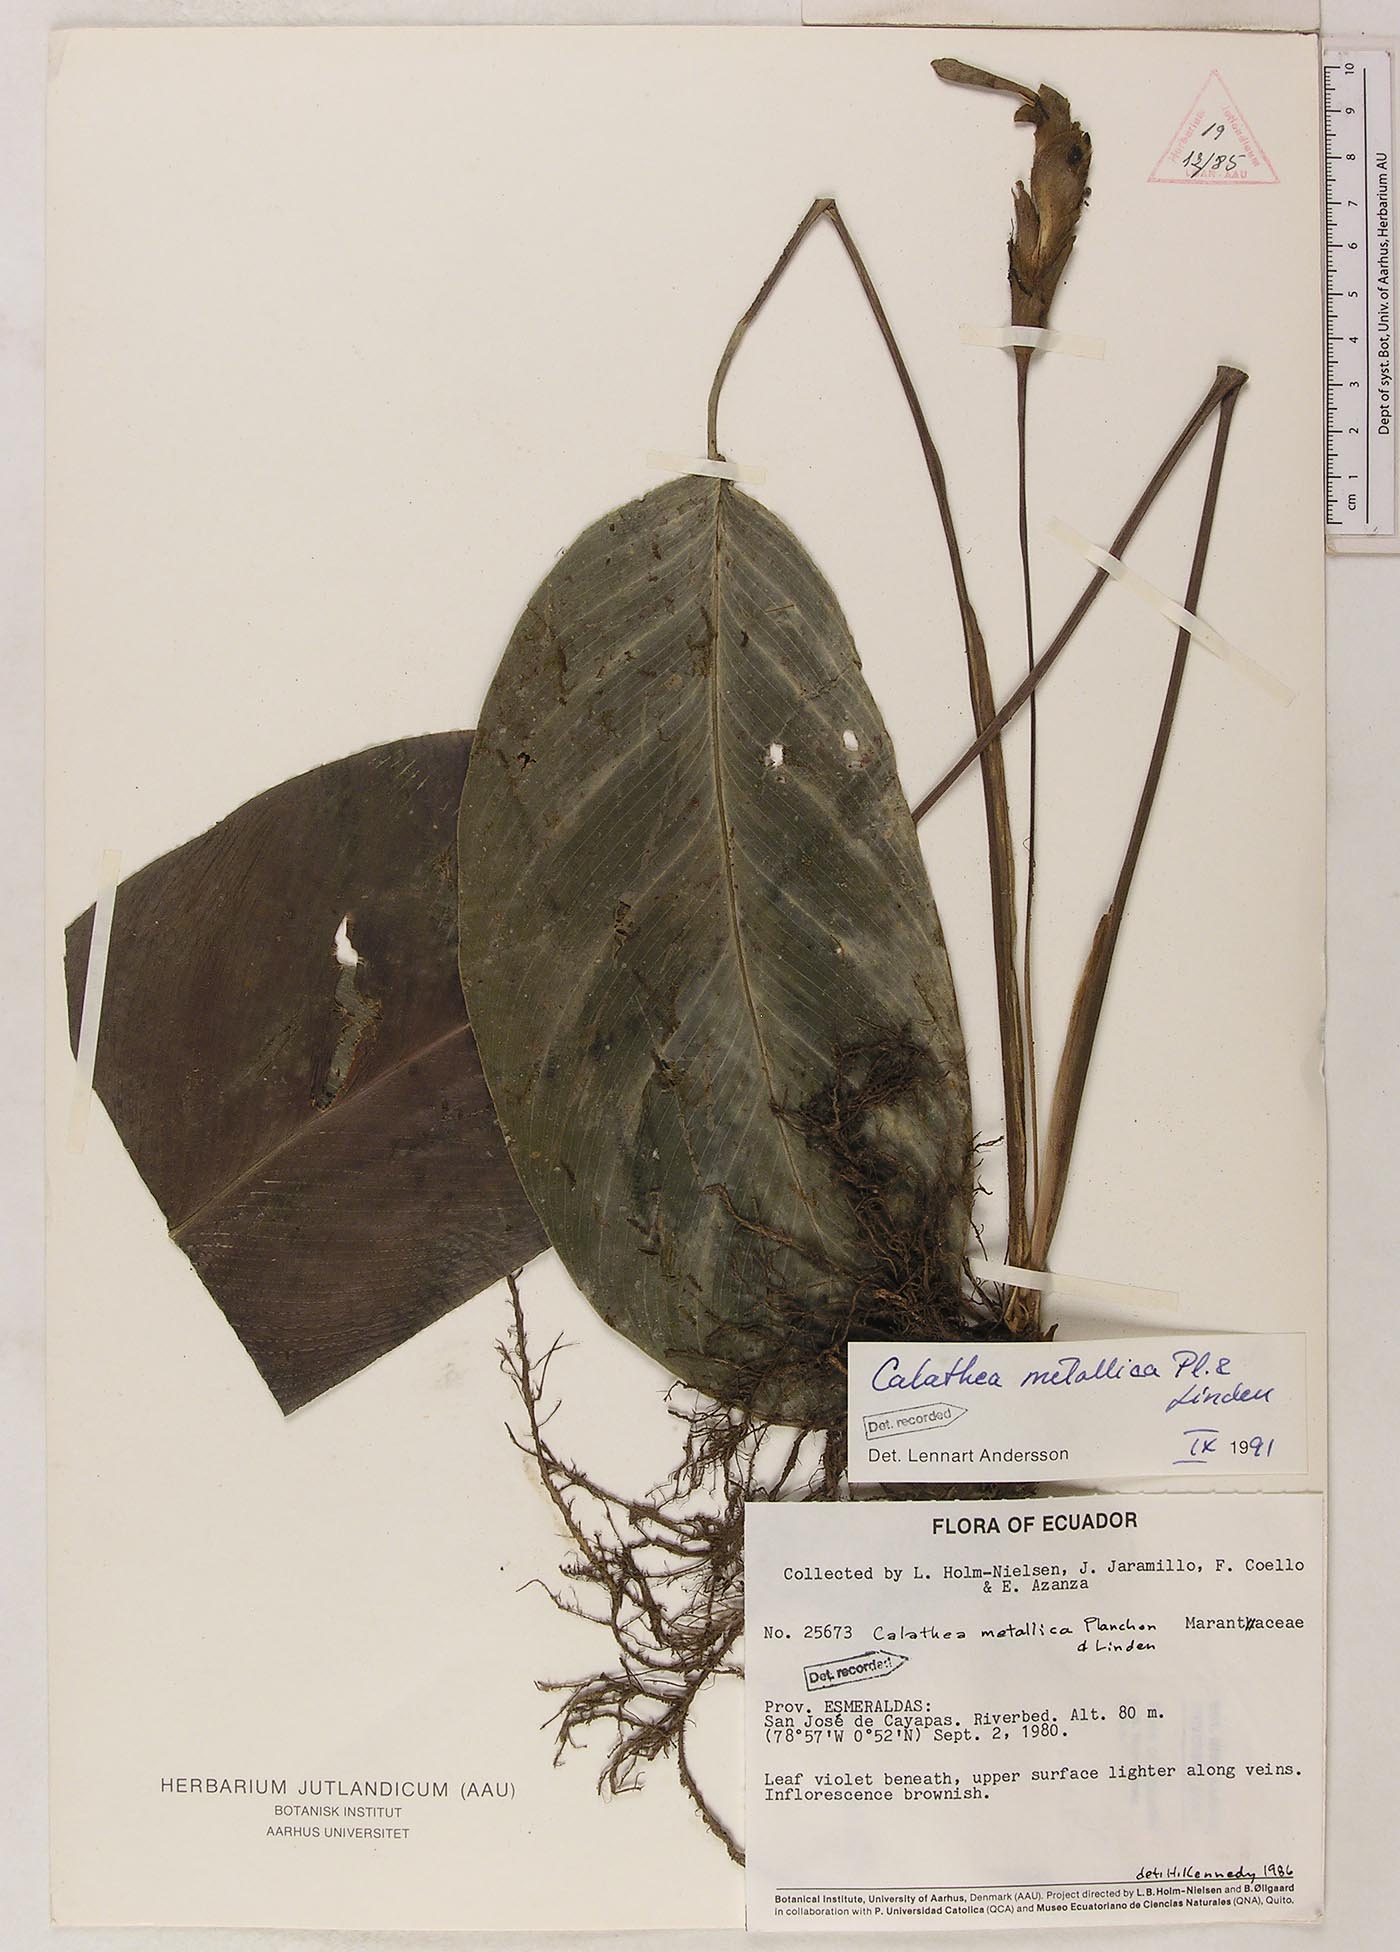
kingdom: Plantae
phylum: Tracheophyta
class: Liliopsida
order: Zingiberales
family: Marantaceae
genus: Goeppertia
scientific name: Goeppertia metallica
